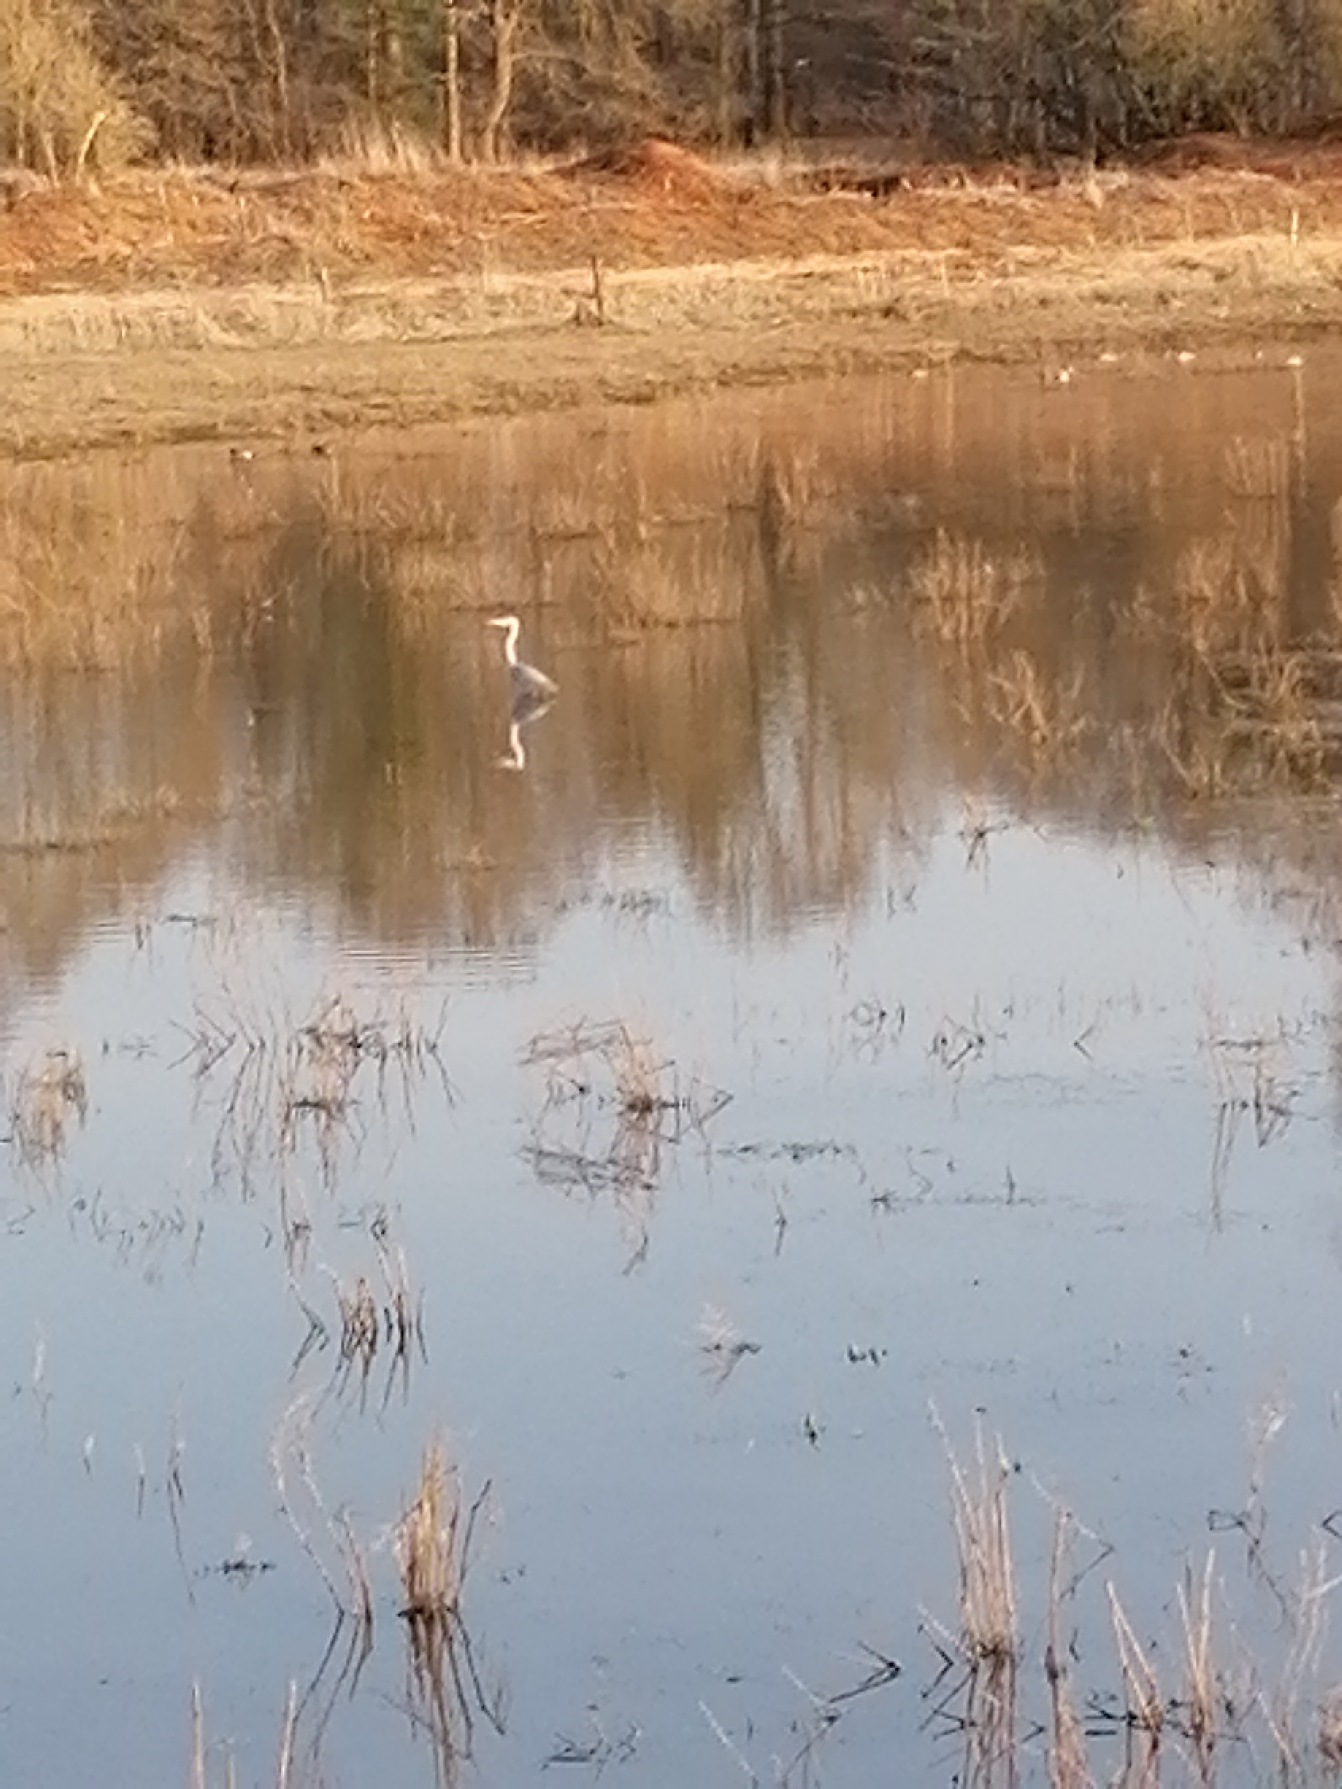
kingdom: Animalia
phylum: Chordata
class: Aves
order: Pelecaniformes
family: Ardeidae
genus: Ardea
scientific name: Ardea cinerea
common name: Fiskehejre
